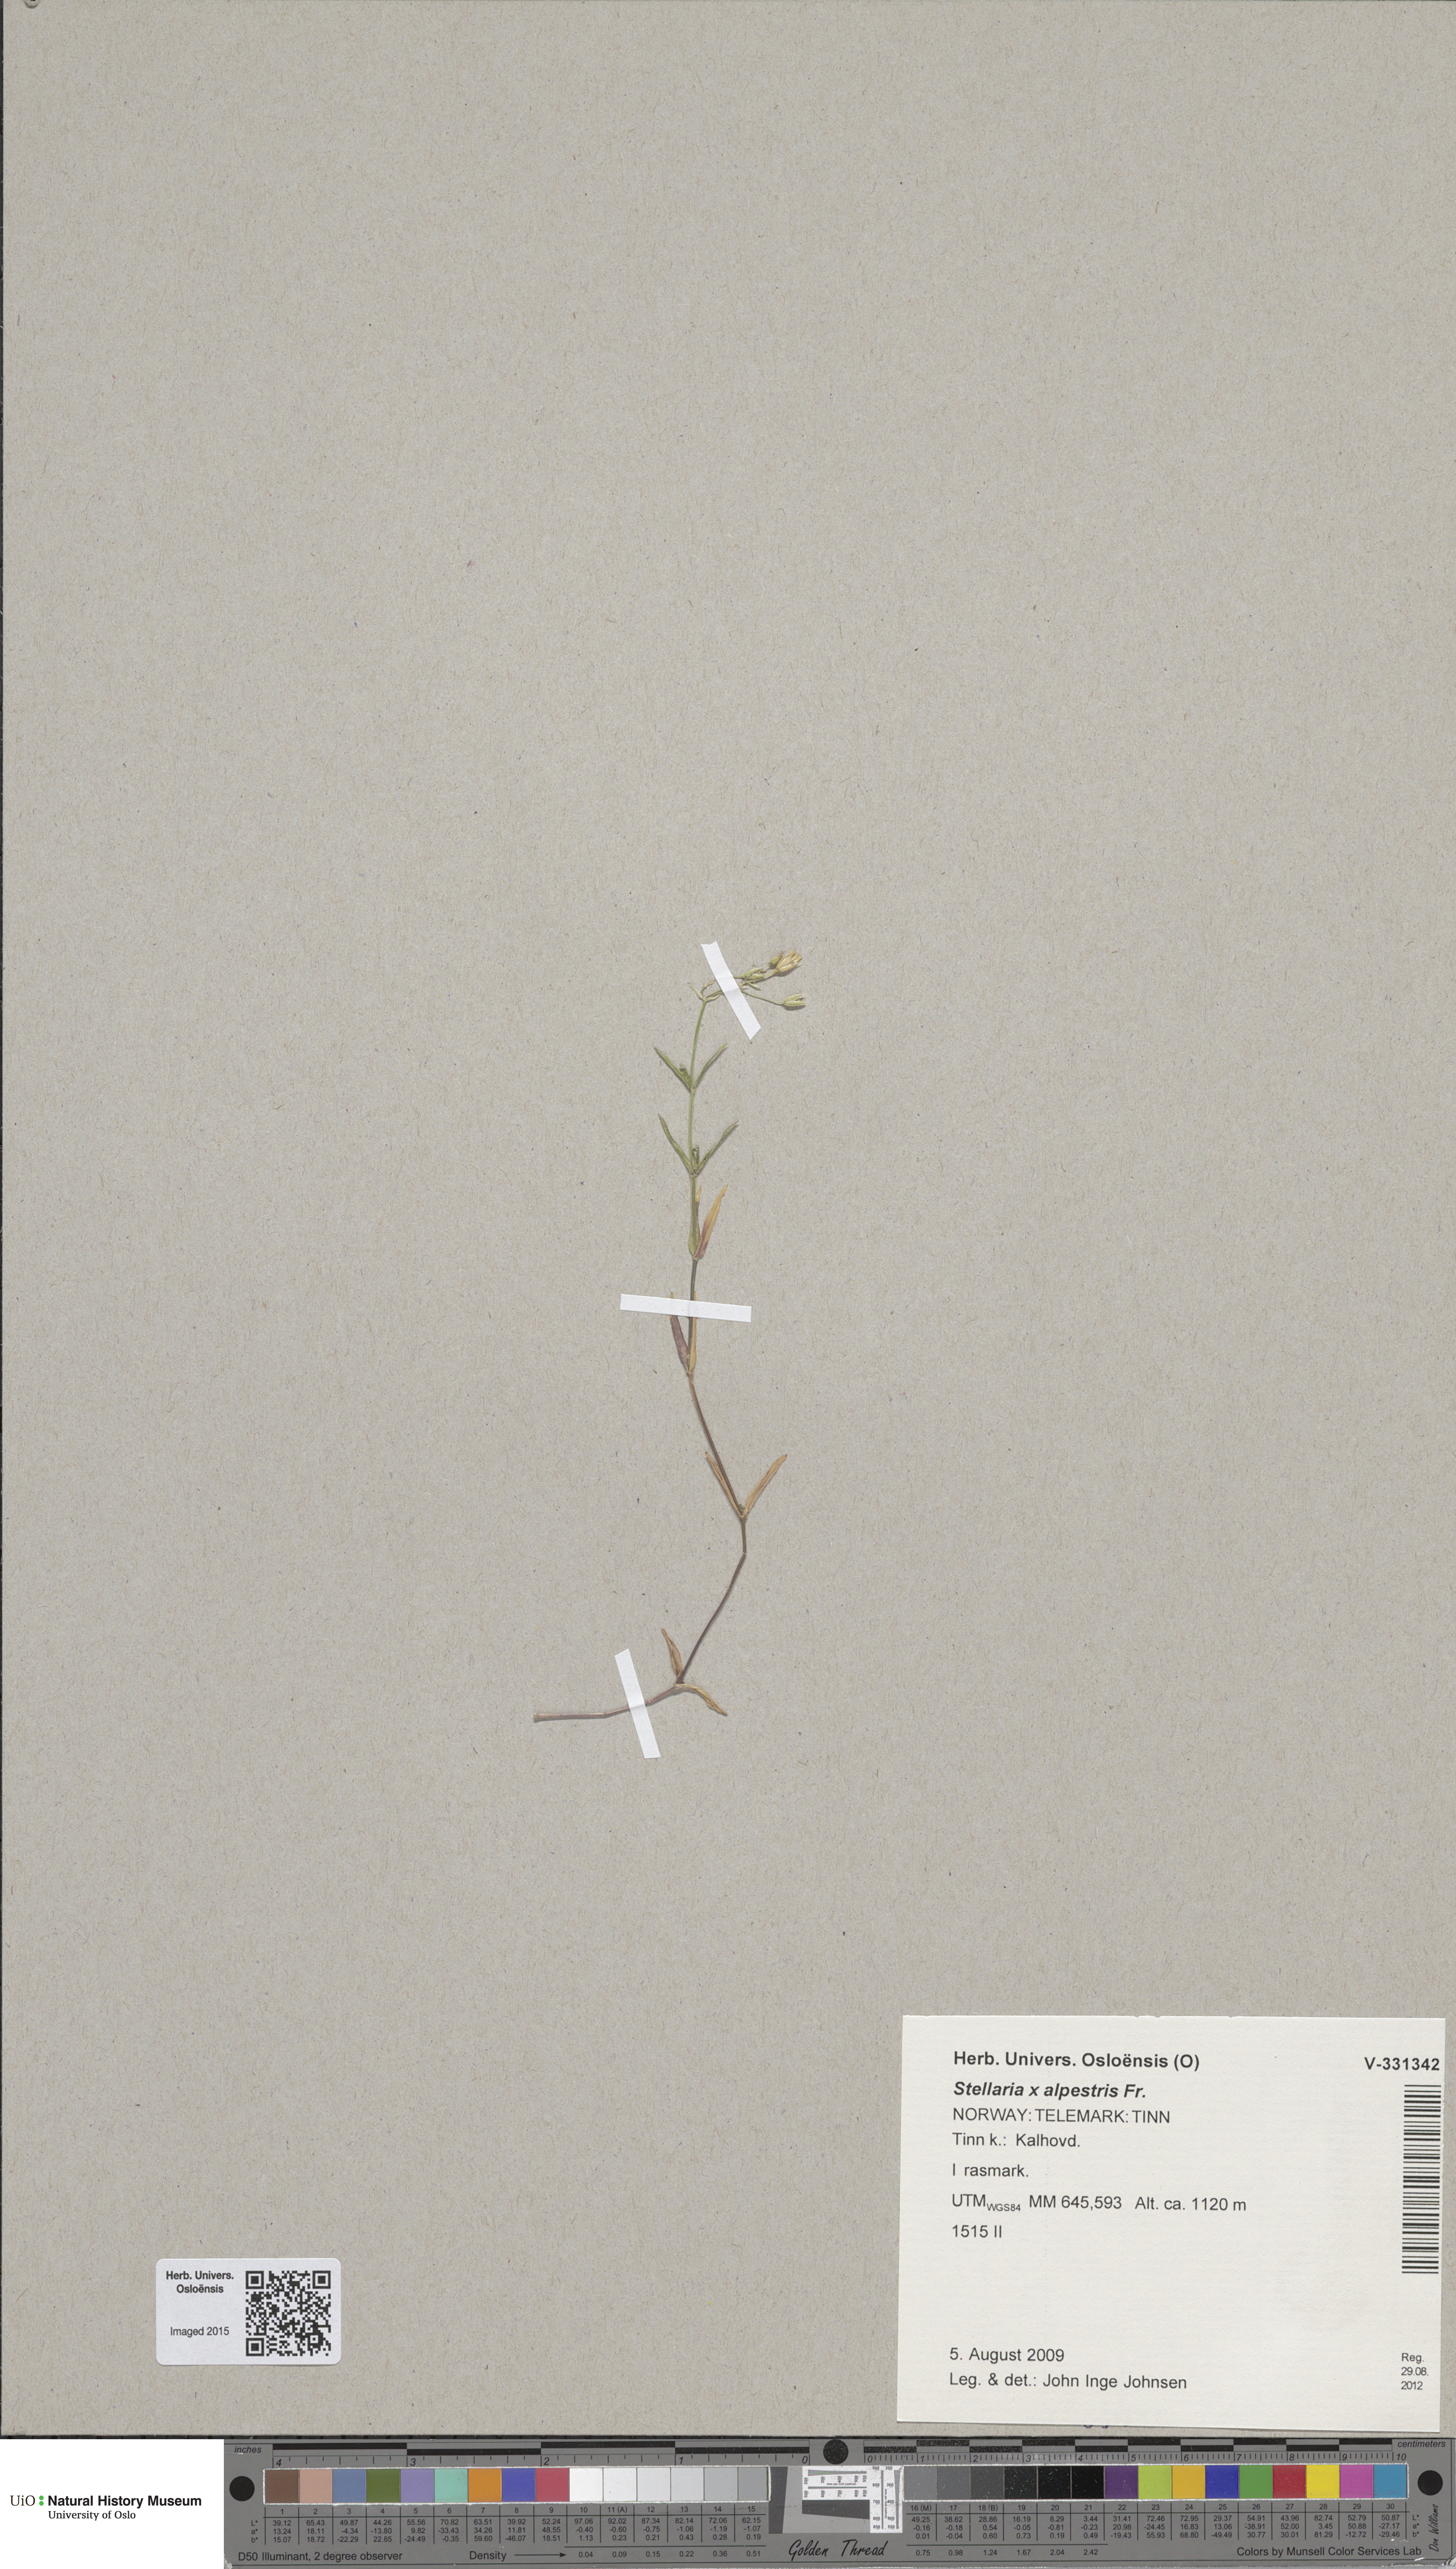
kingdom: Plantae
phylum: Tracheophyta
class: Magnoliopsida
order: Caryophyllales
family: Caryophyllaceae
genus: Stellaria
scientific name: Stellaria graminea
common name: Grass-like starwort
